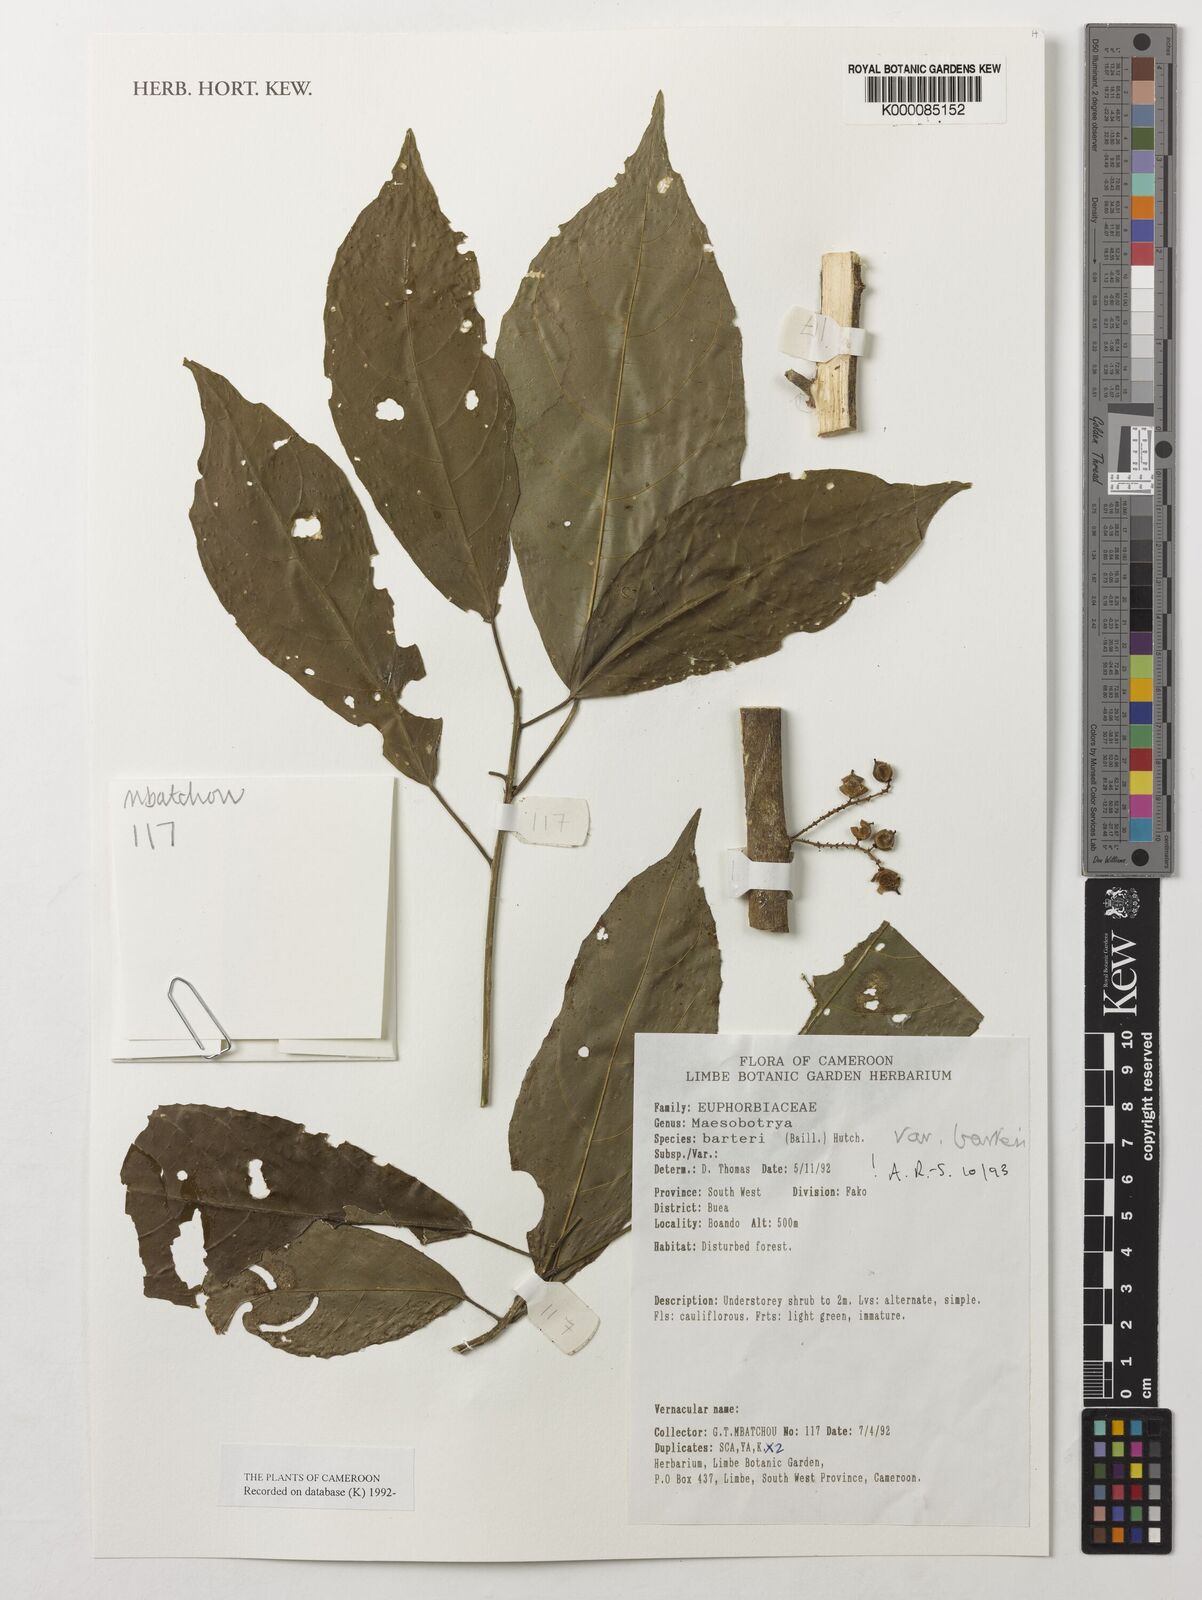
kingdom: Plantae
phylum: Tracheophyta
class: Magnoliopsida
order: Malpighiales
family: Phyllanthaceae
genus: Maesobotrya
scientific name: Maesobotrya barteri
